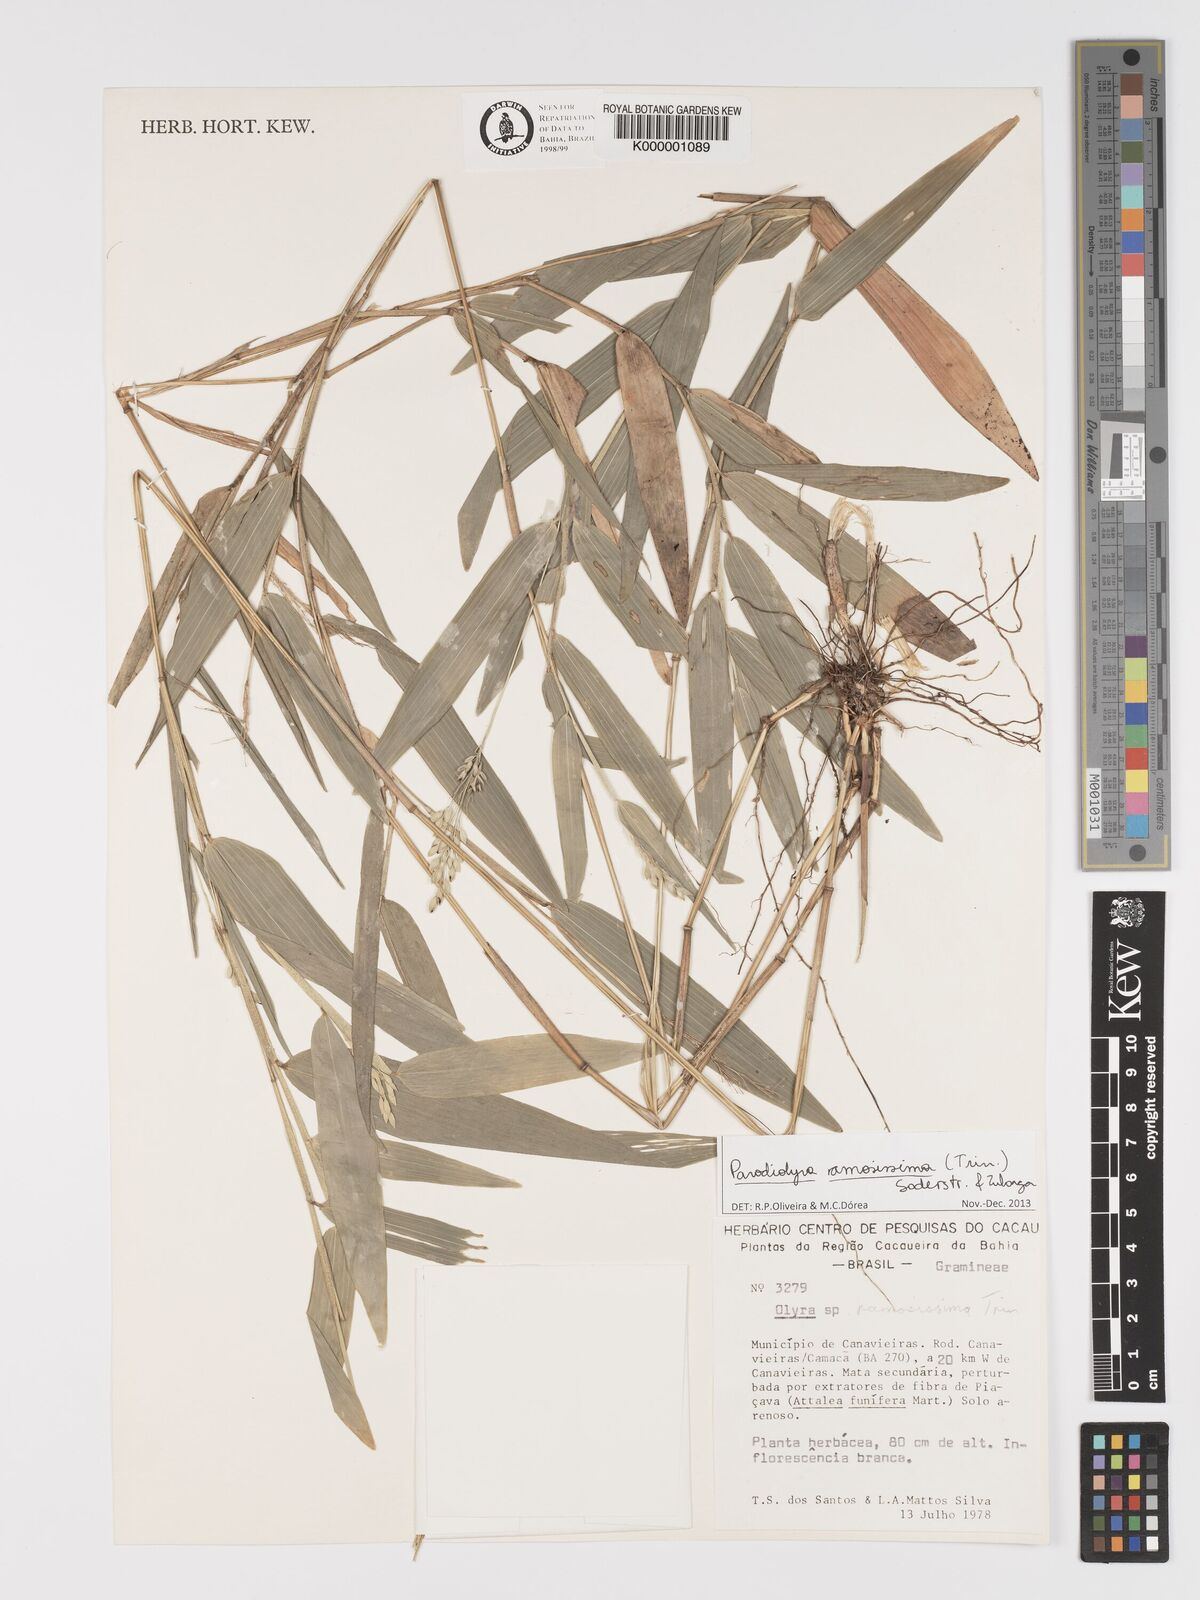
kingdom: Plantae
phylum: Tracheophyta
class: Liliopsida
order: Poales
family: Poaceae
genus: Parodiolyra
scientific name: Parodiolyra ramosissima
